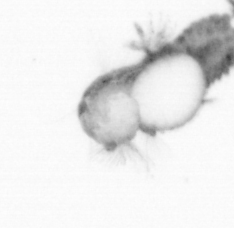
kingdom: Animalia
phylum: Annelida
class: Polychaeta
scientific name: Polychaeta
